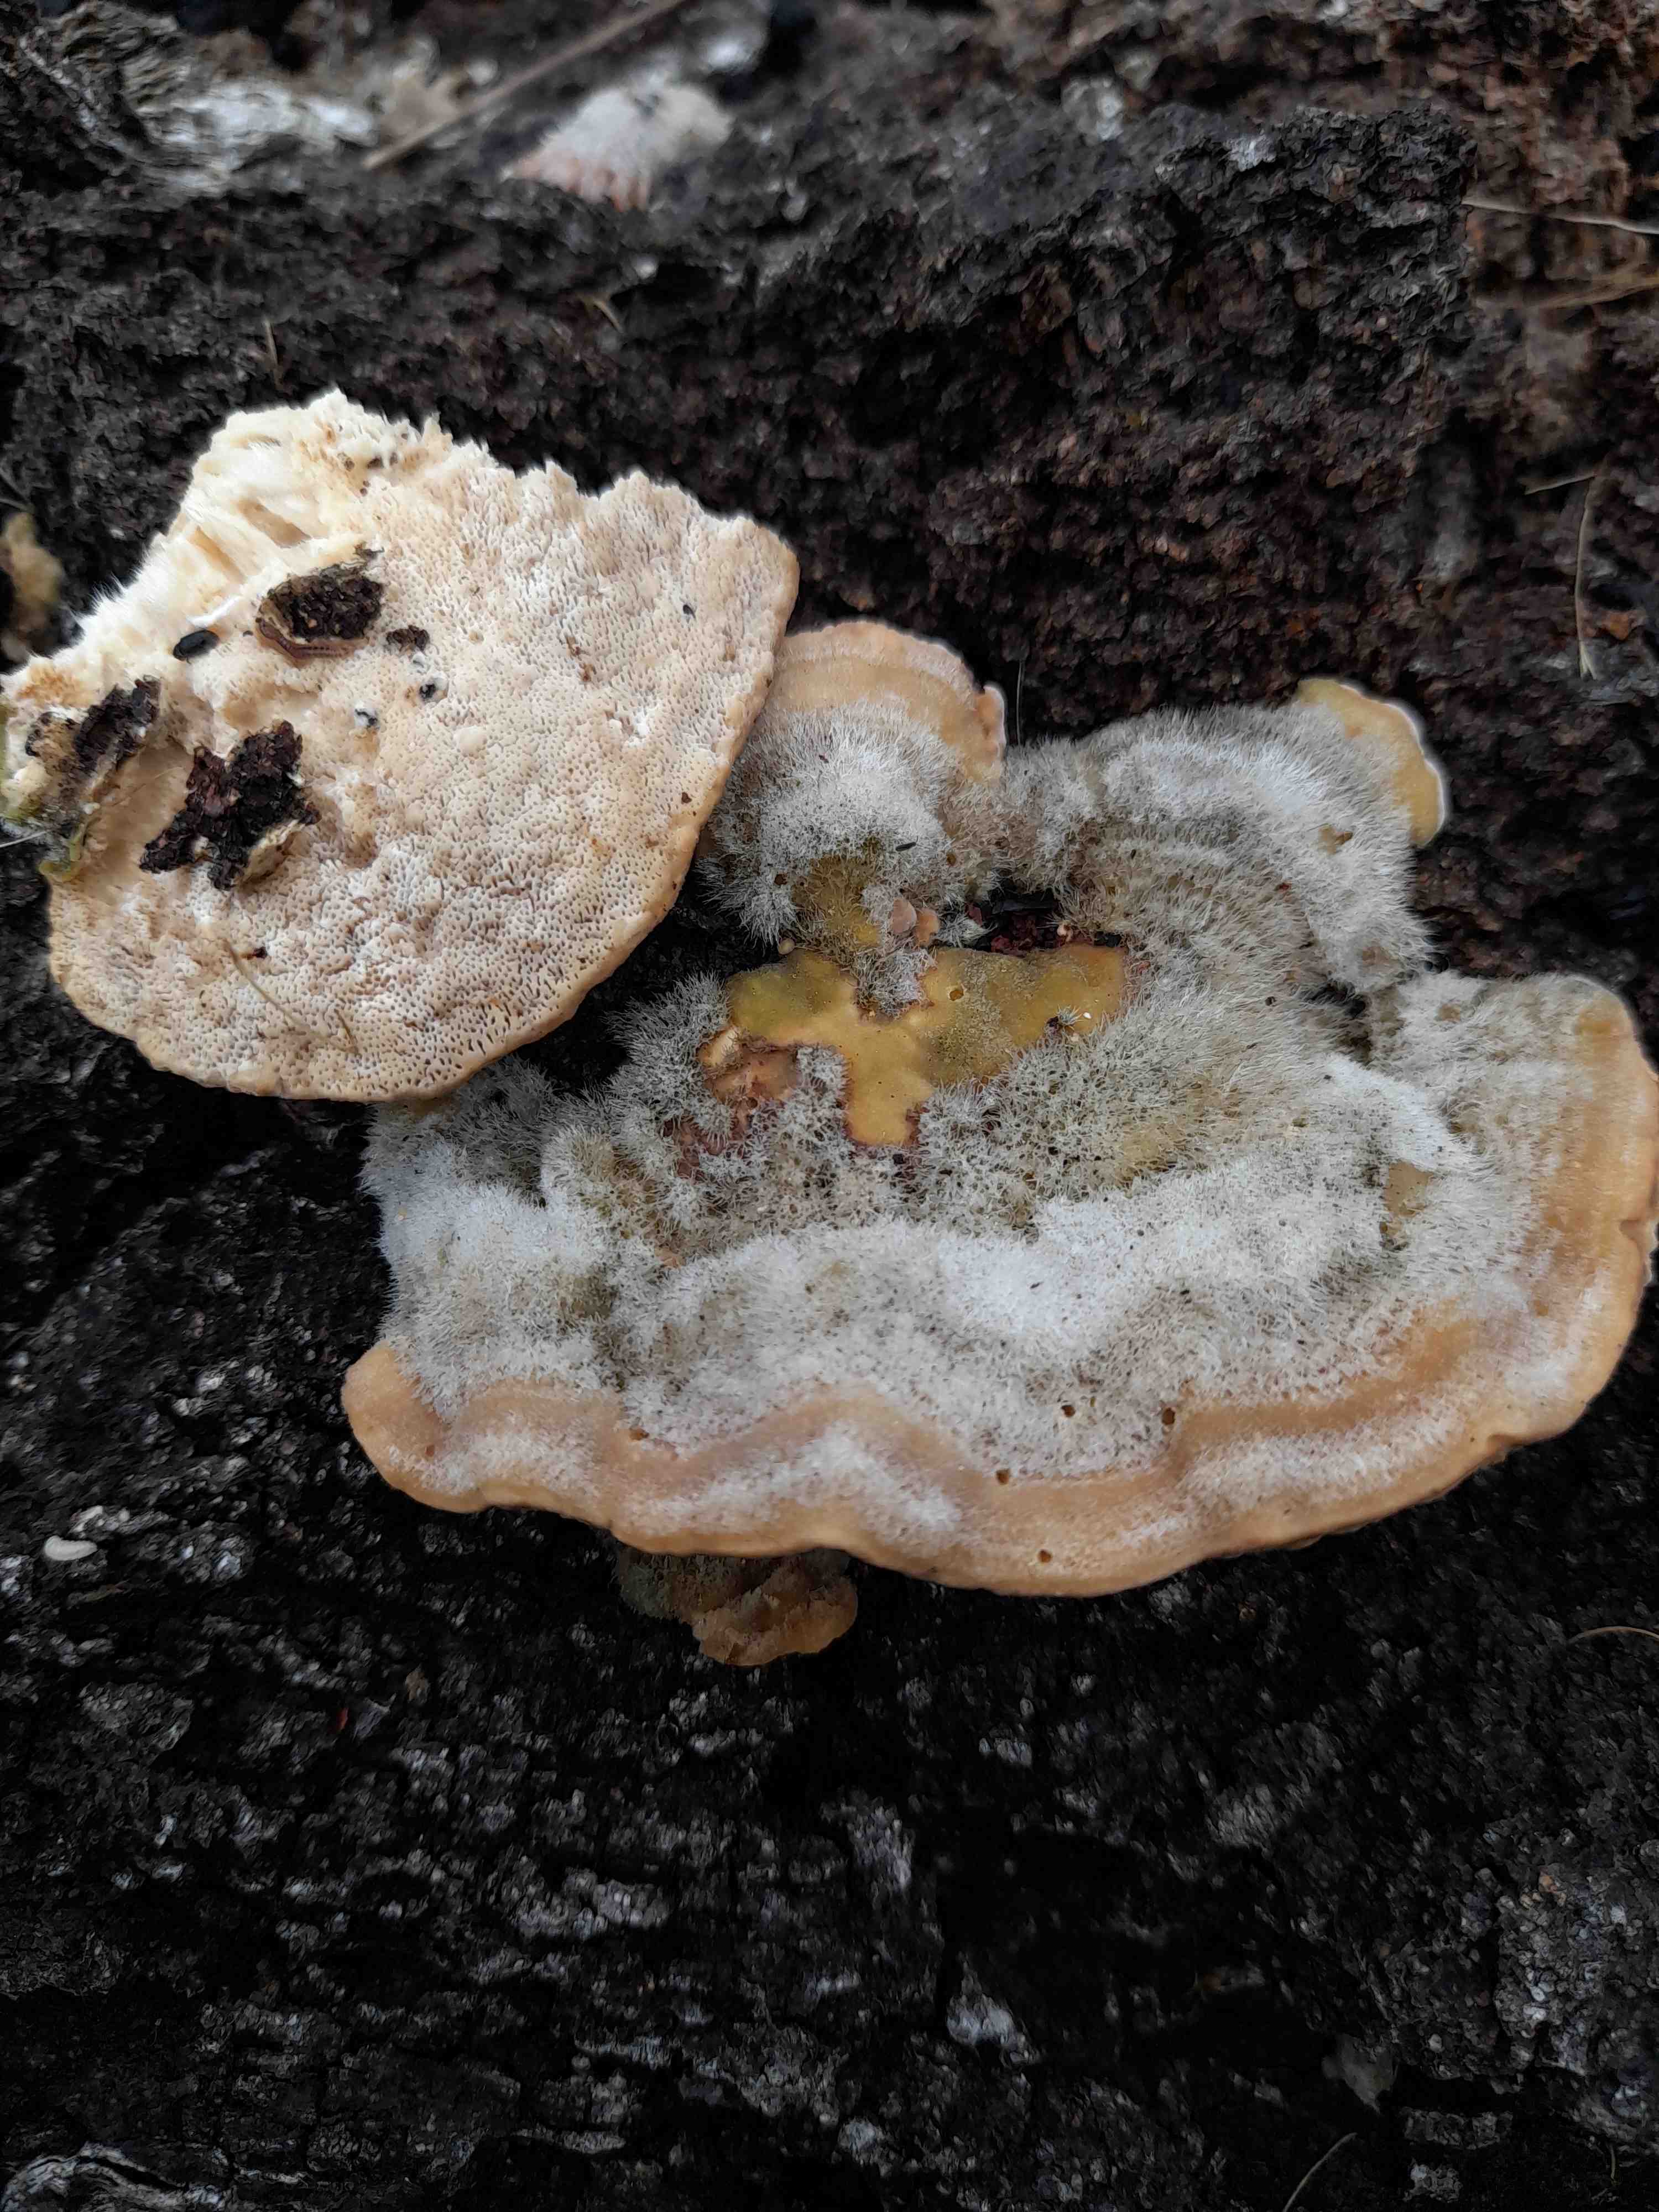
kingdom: Fungi
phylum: Basidiomycota
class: Agaricomycetes
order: Polyporales
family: Polyporaceae
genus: Trametes
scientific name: Trametes hirsuta
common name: håret læderporesvamp
